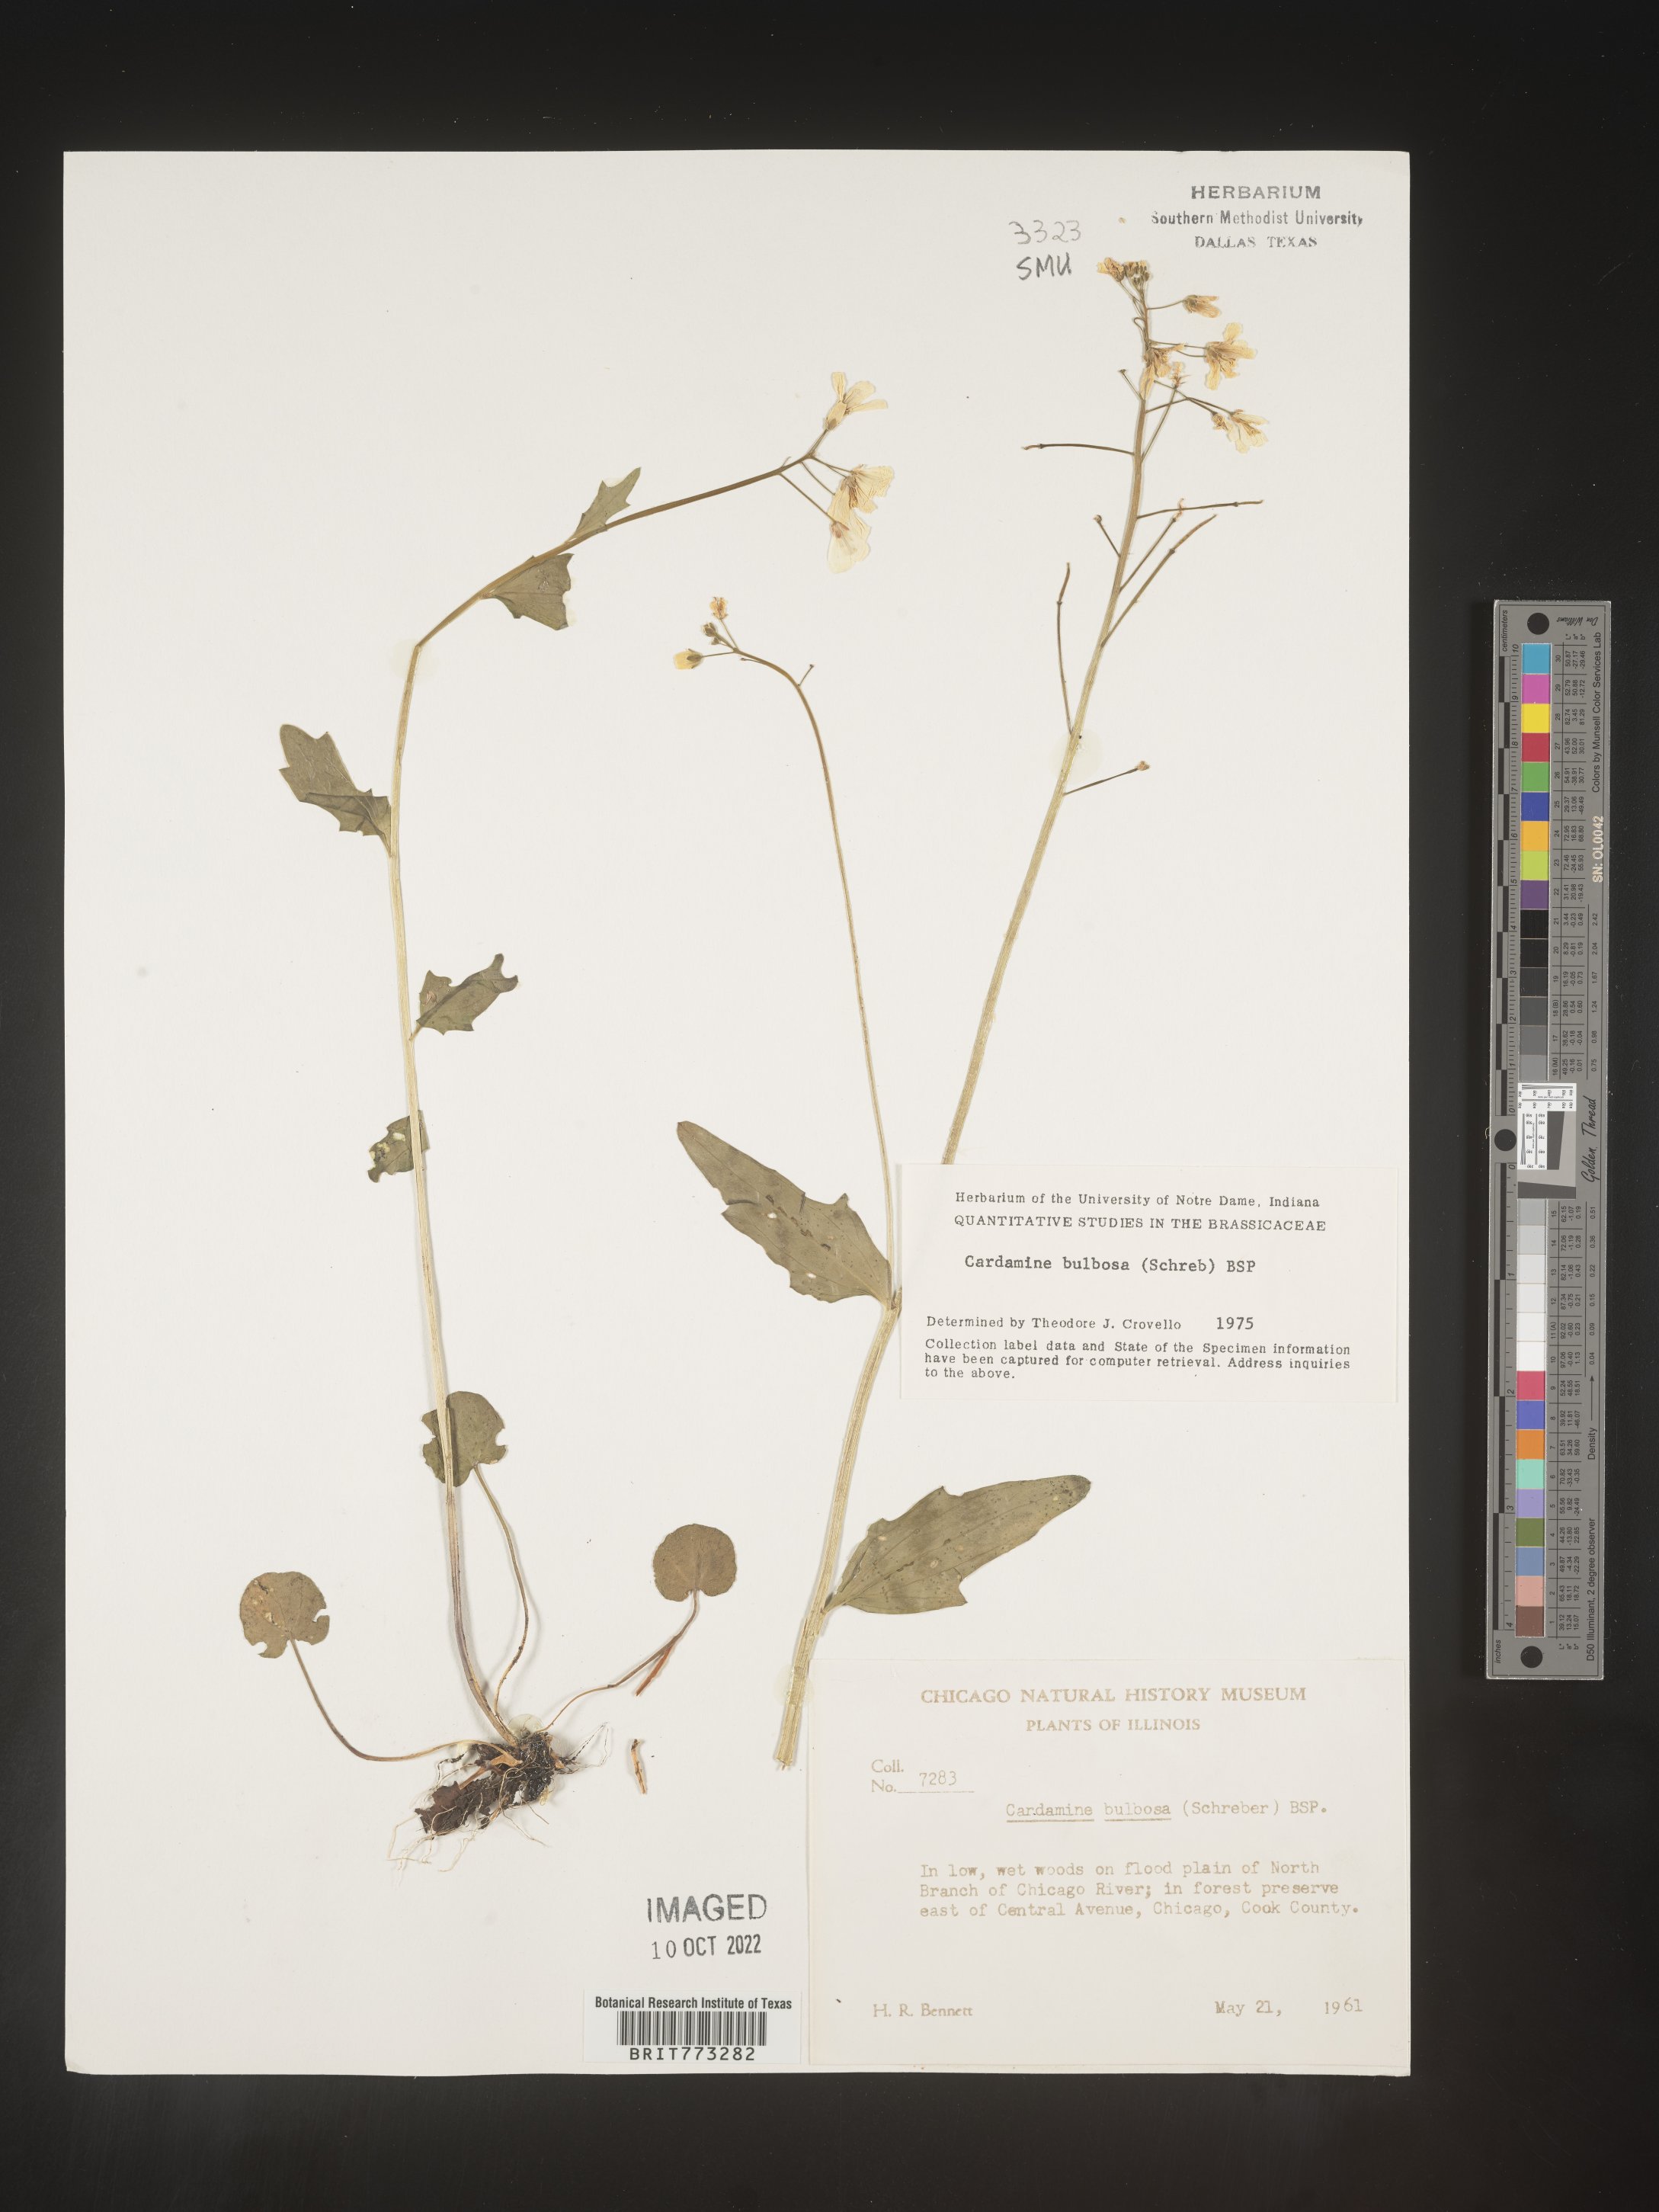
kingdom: Plantae
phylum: Tracheophyta
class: Magnoliopsida
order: Brassicales
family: Brassicaceae
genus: Cardamine
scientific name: Cardamine bulbosa
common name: Spring cress
